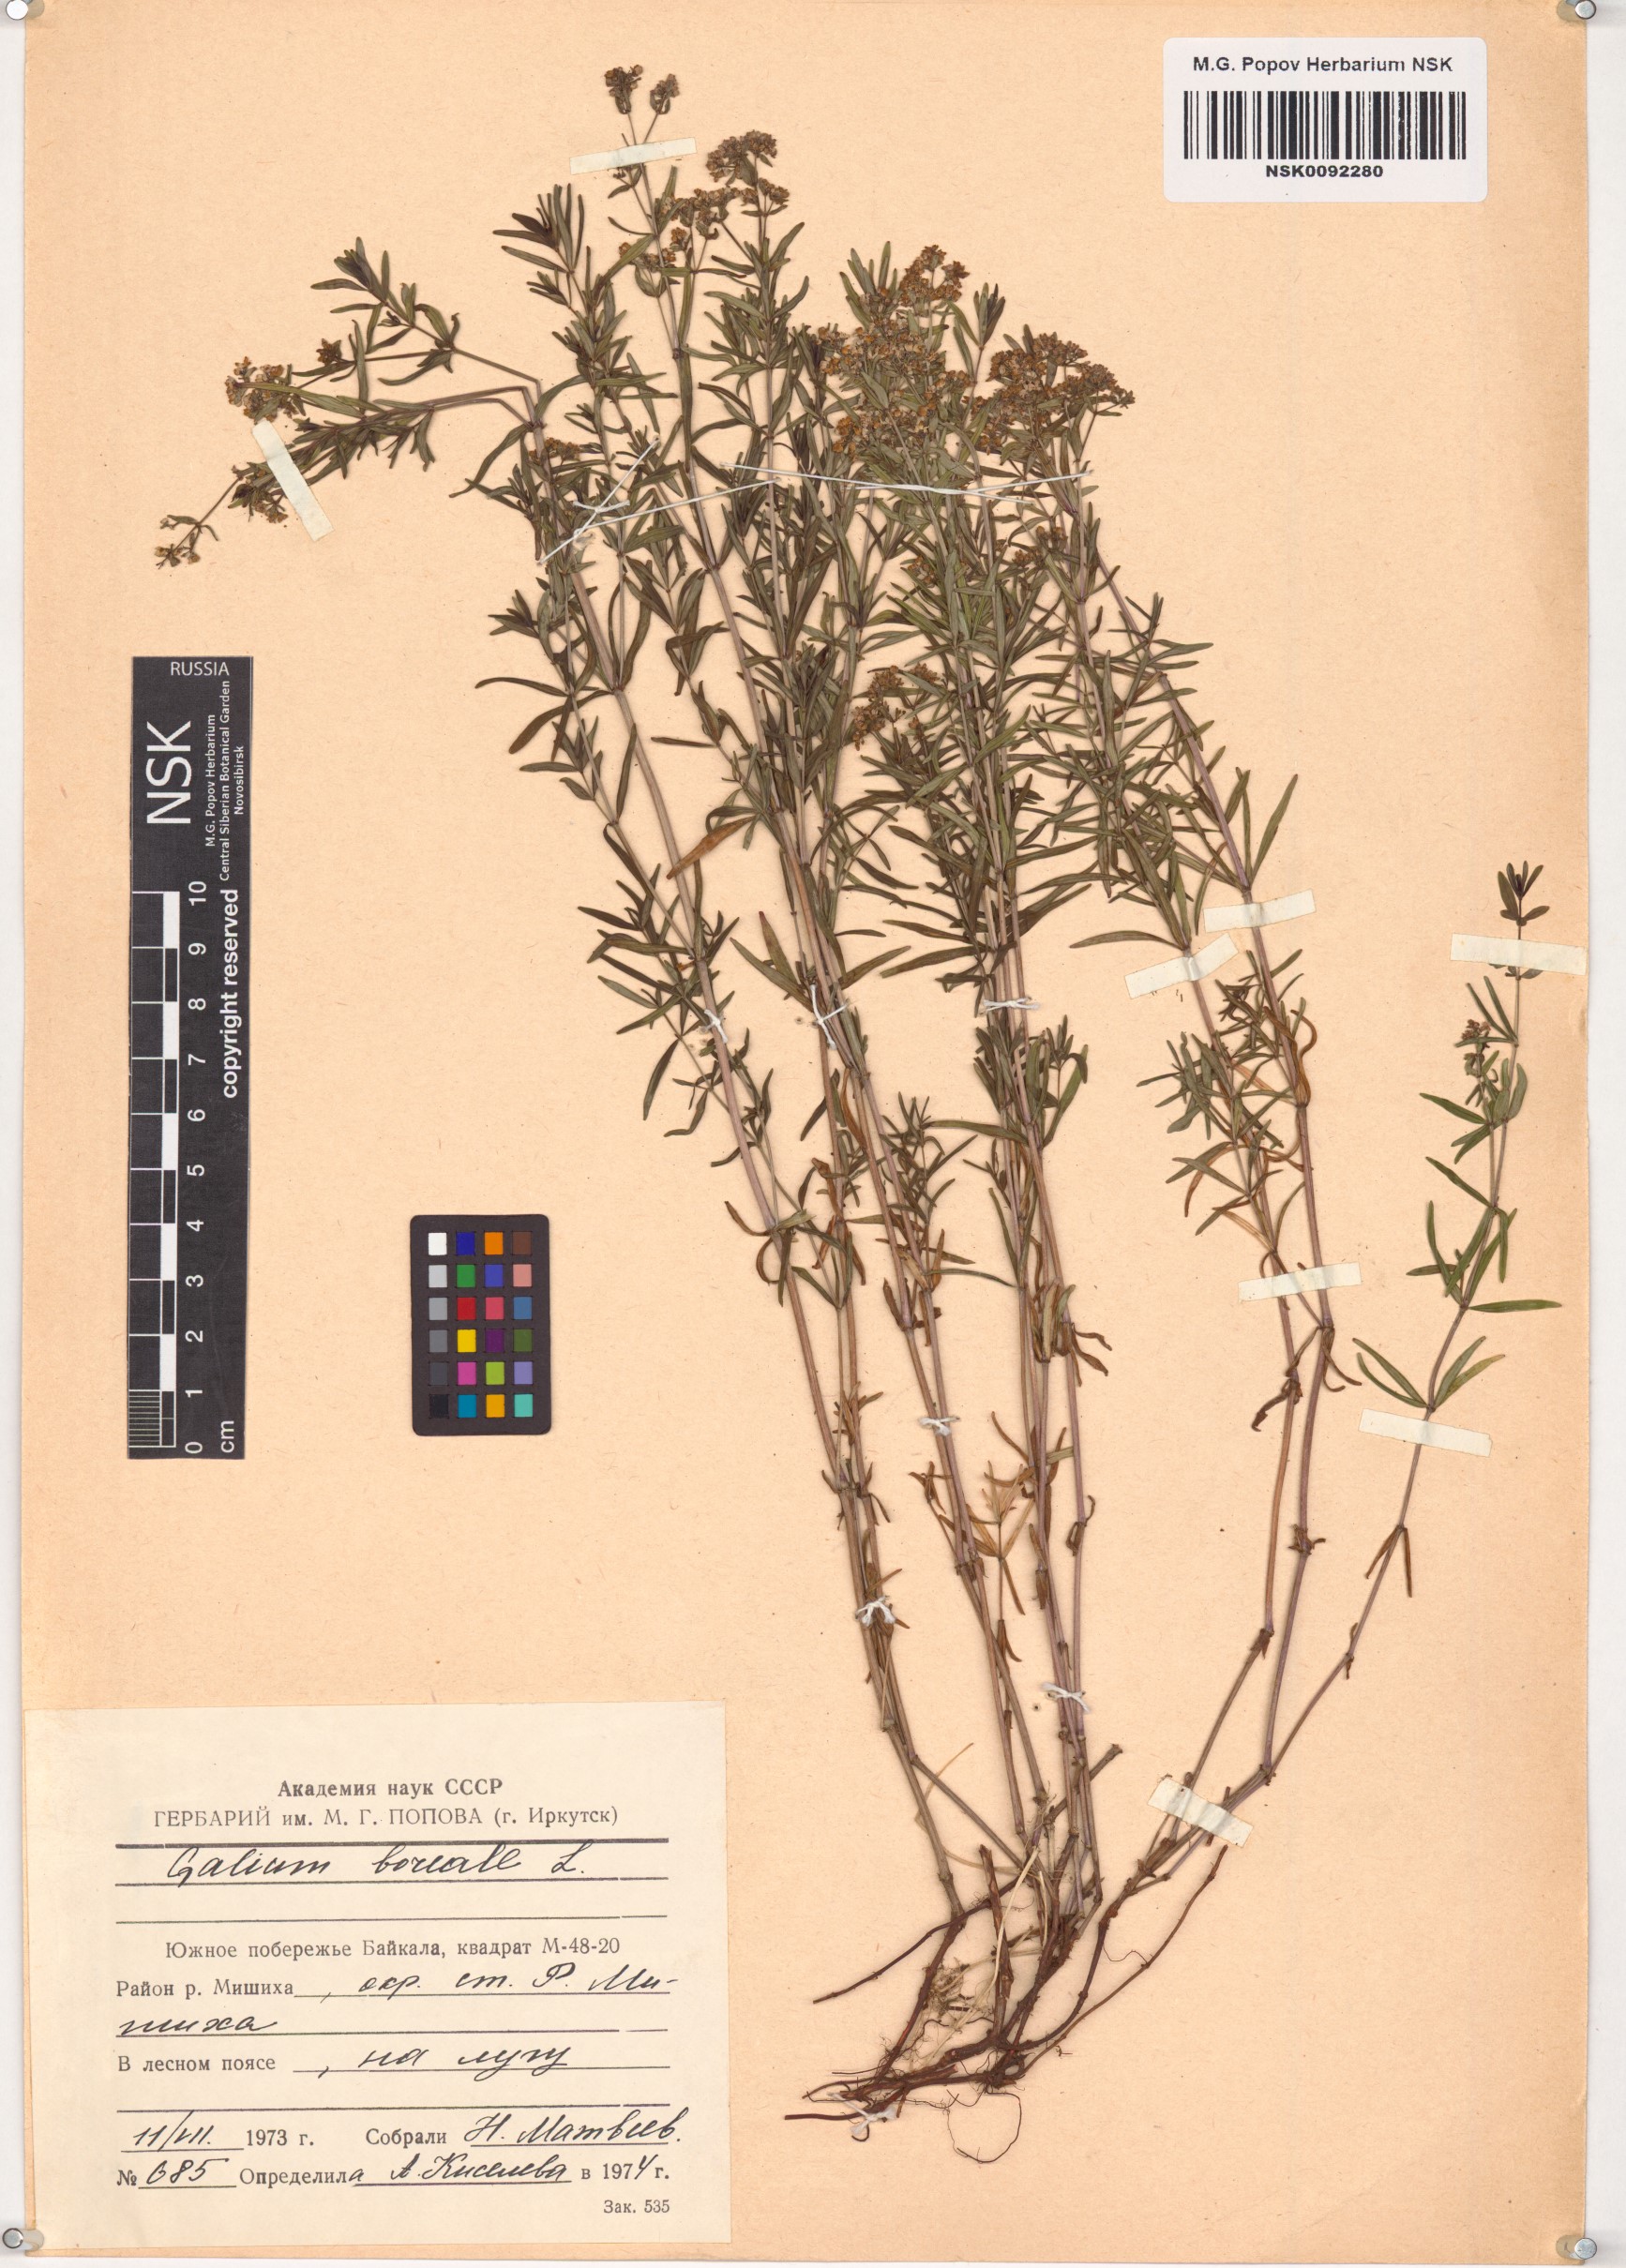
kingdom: Plantae
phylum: Tracheophyta
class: Magnoliopsida
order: Gentianales
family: Rubiaceae
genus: Galium
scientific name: Galium boreale
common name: Northern bedstraw
